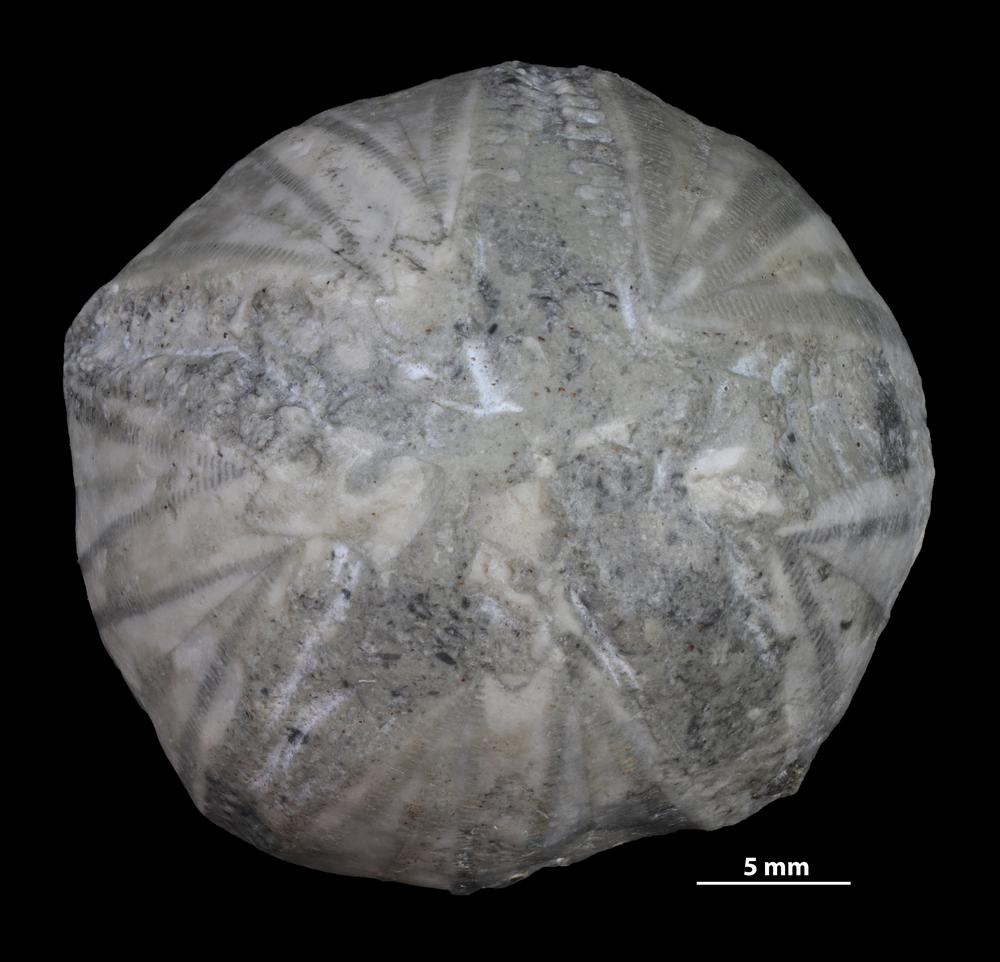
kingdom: Animalia
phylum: Echinodermata
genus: Cystoblastus
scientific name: Cystoblastus
